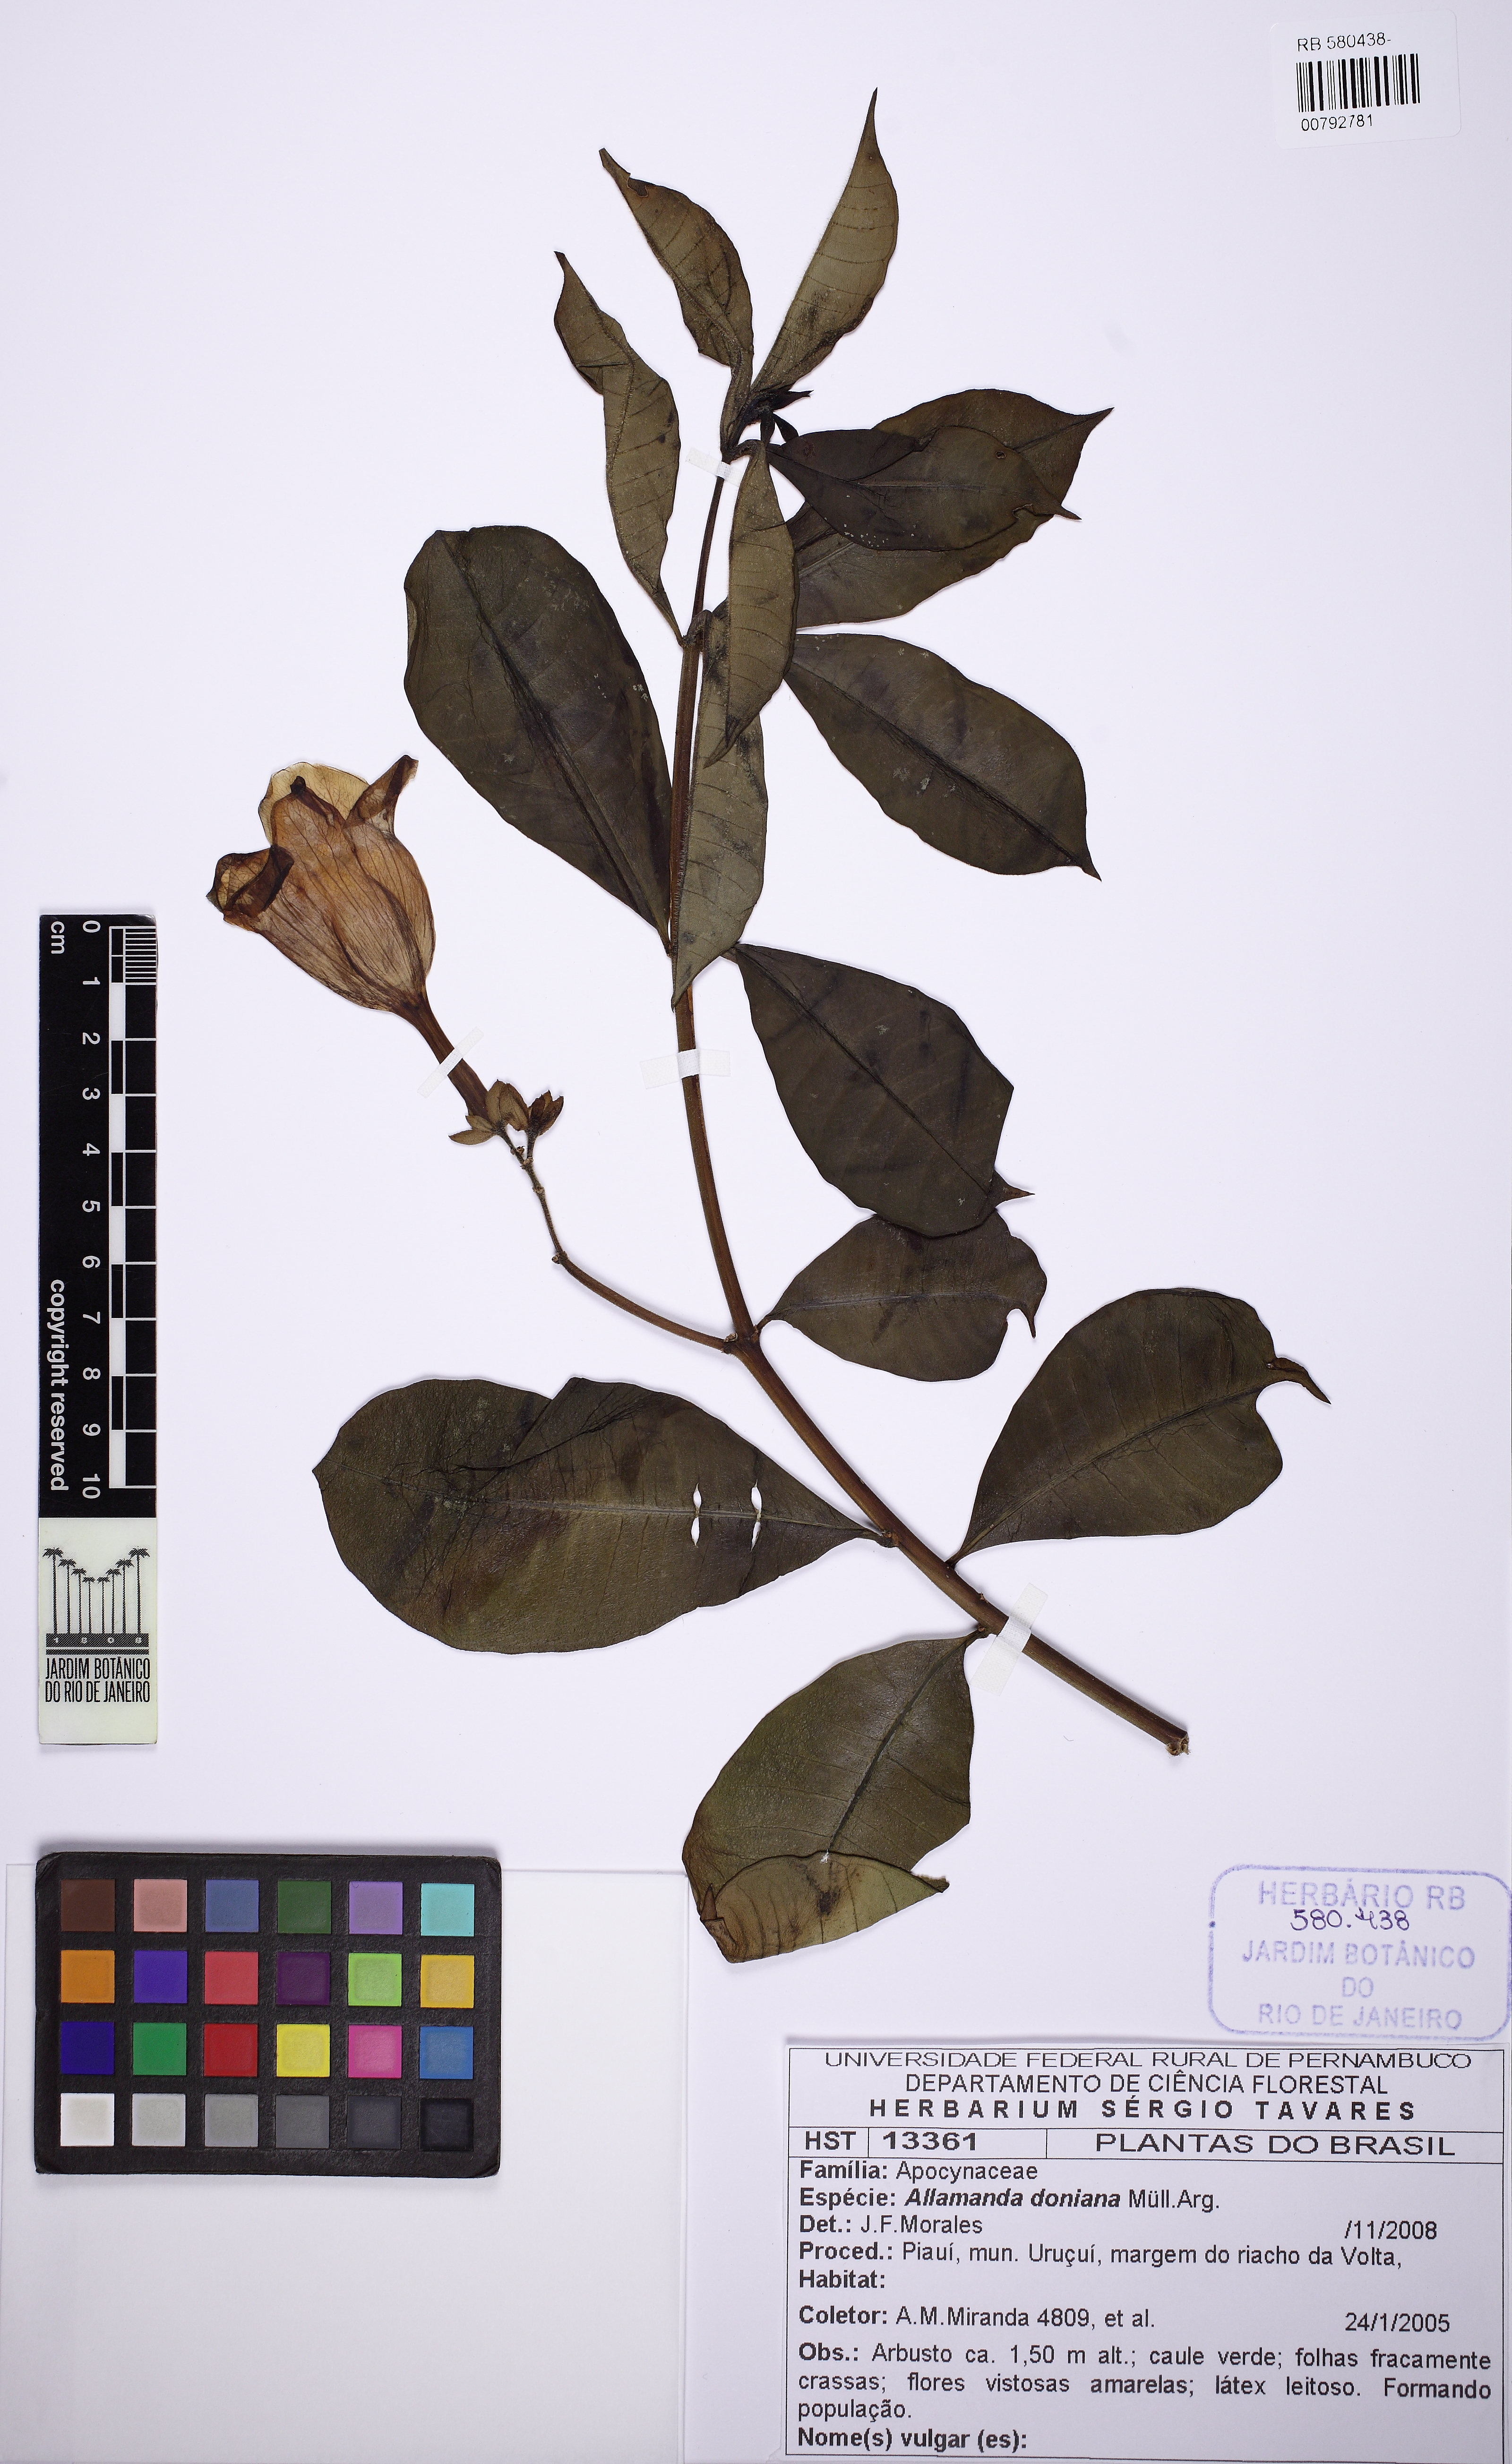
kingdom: Plantae
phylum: Tracheophyta
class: Magnoliopsida
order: Gentianales
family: Apocynaceae
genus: Allamanda
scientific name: Allamanda doniana
